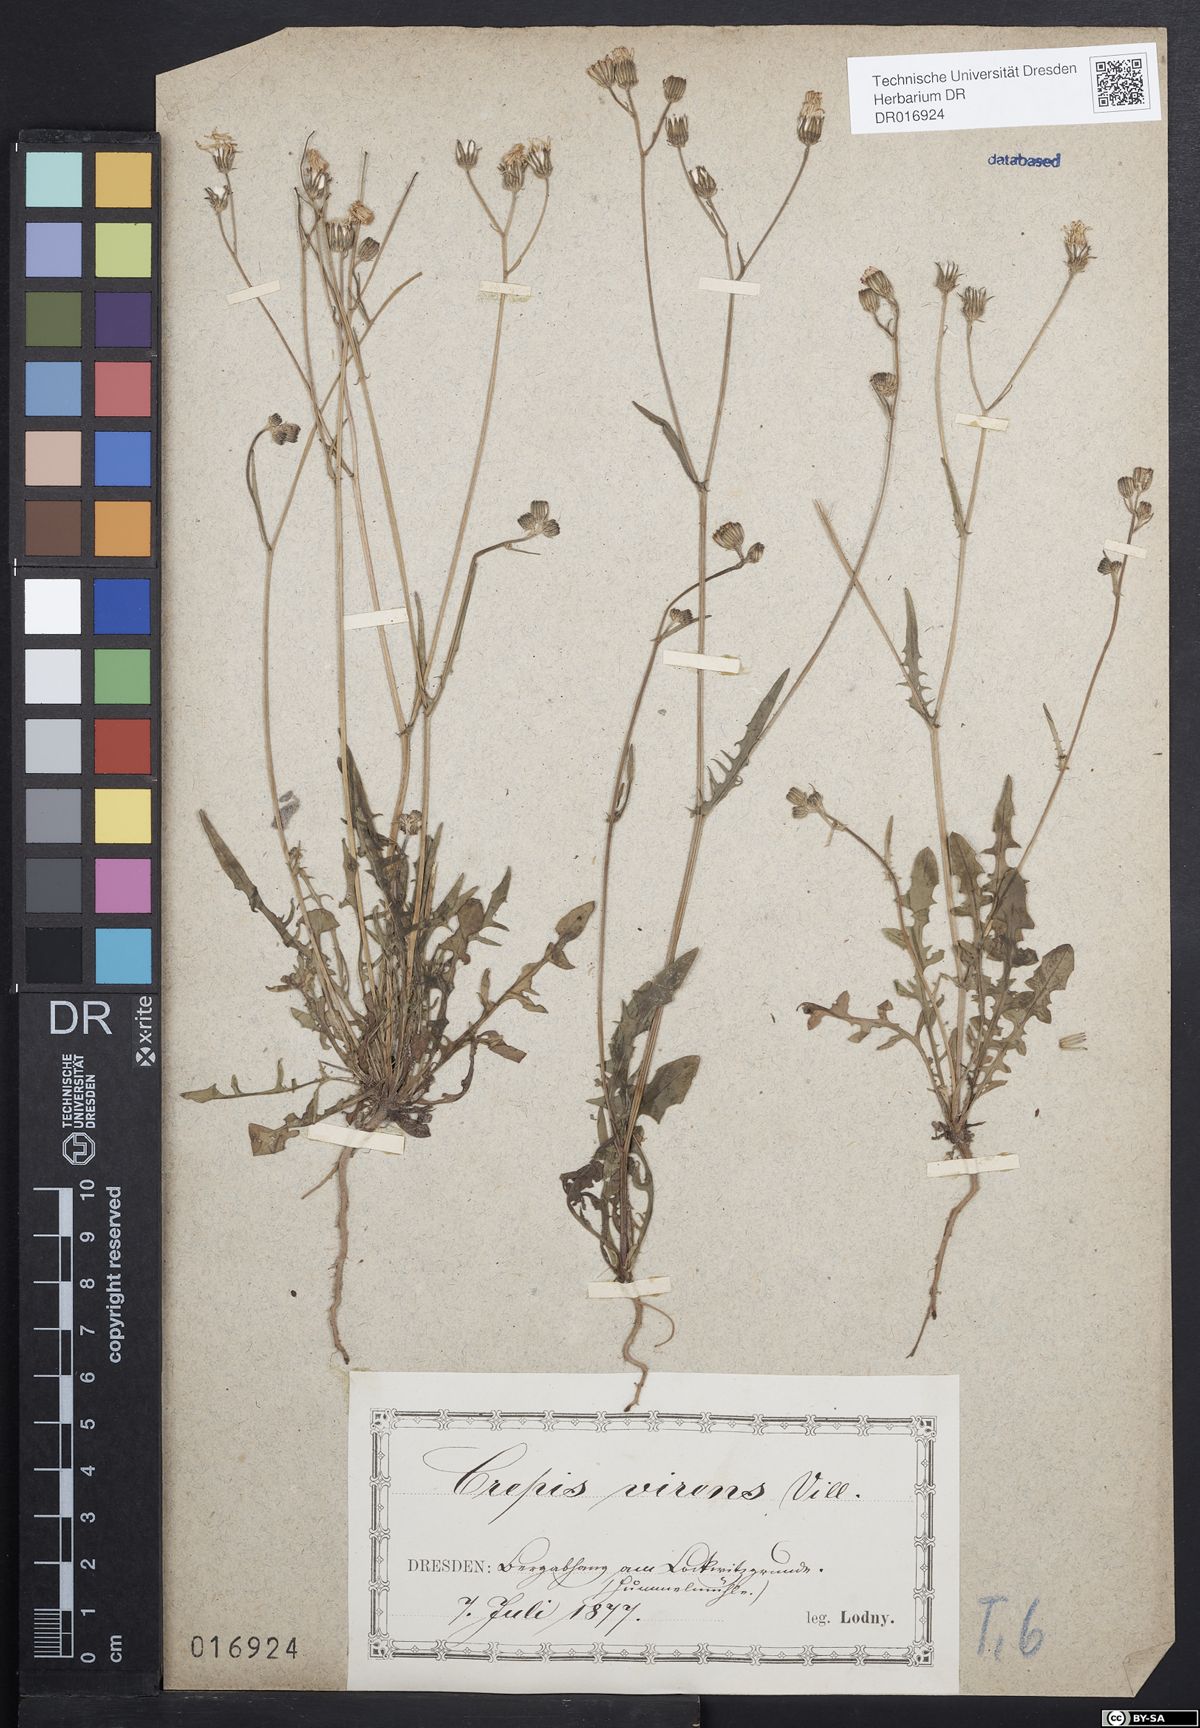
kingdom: Plantae
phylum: Tracheophyta
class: Magnoliopsida
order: Asterales
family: Asteraceae
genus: Crepis
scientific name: Crepis capillaris
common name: Smooth hawksbeard
